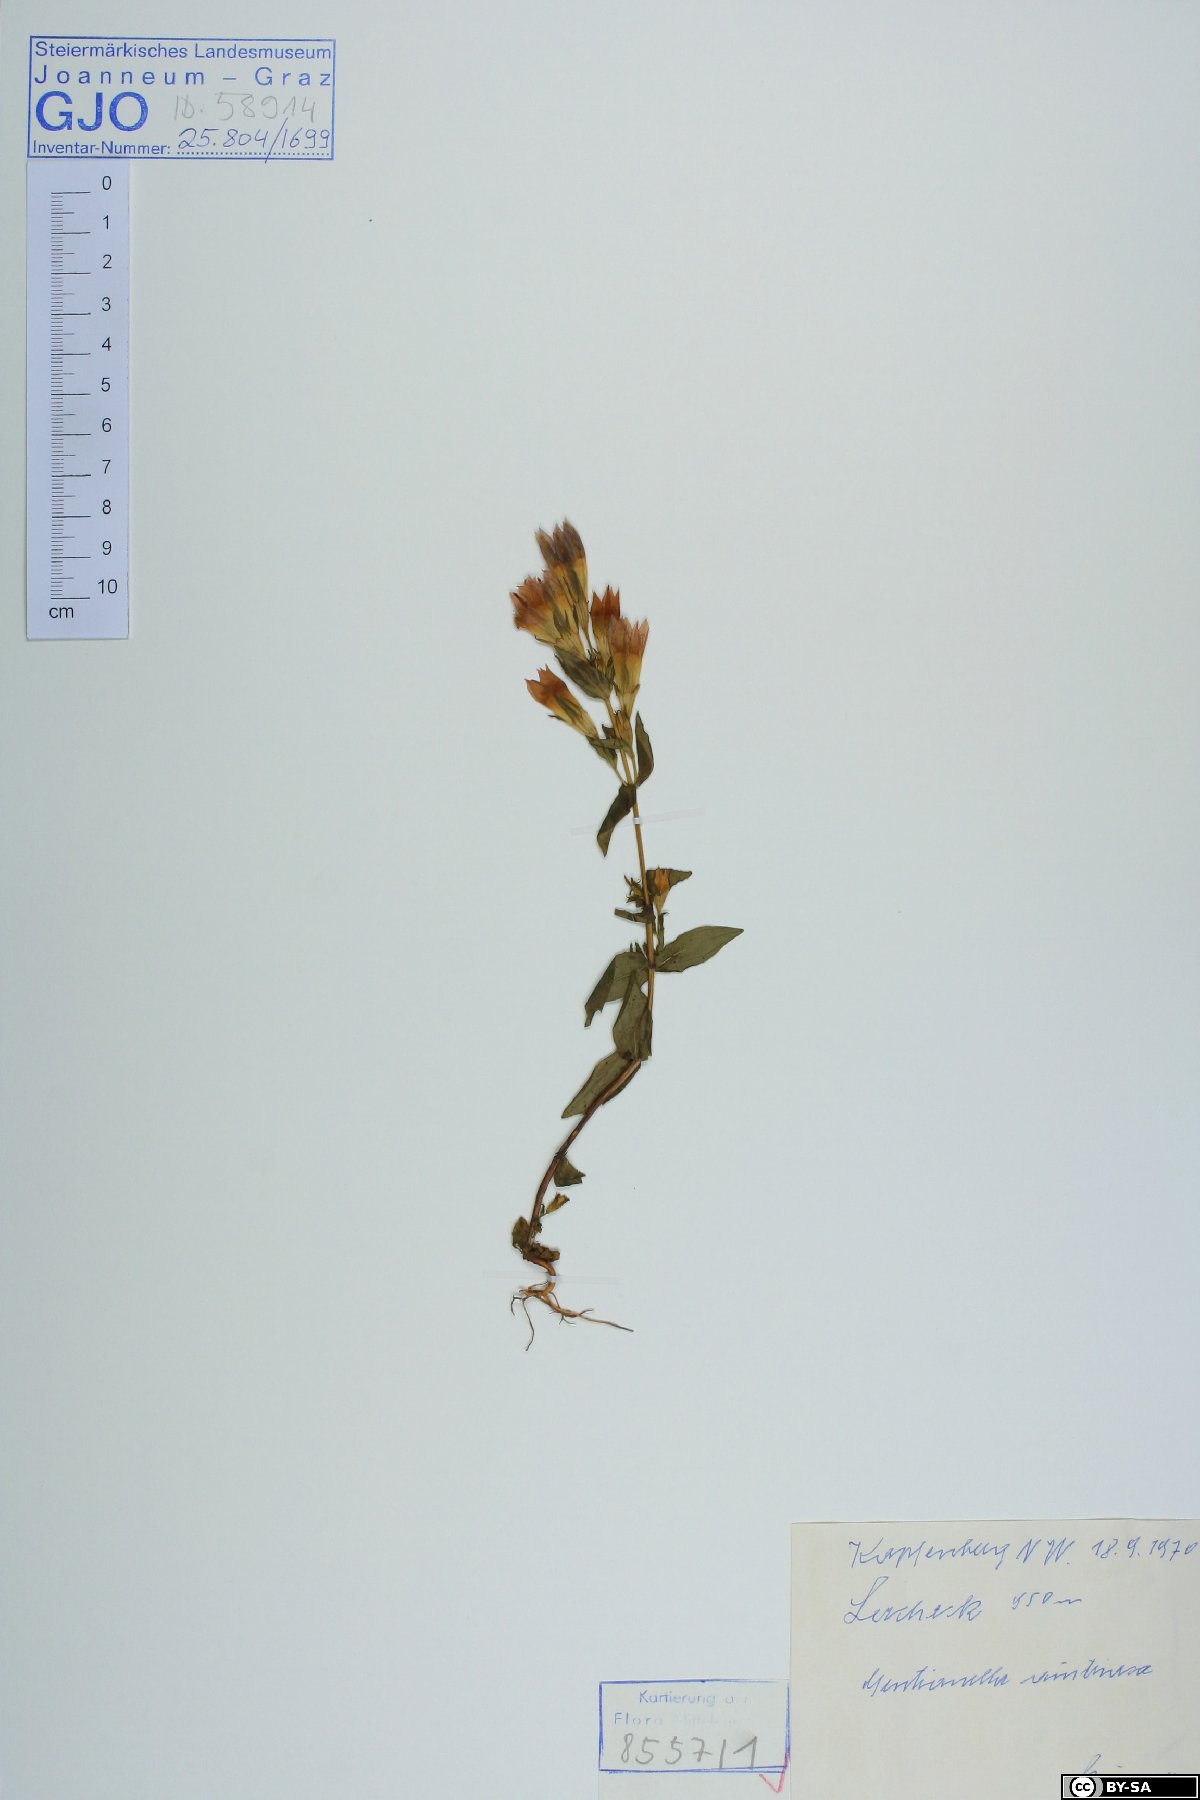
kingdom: Plantae
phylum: Tracheophyta
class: Magnoliopsida
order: Gentianales
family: Gentianaceae
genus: Gentianella
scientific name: Gentianella austriaca
